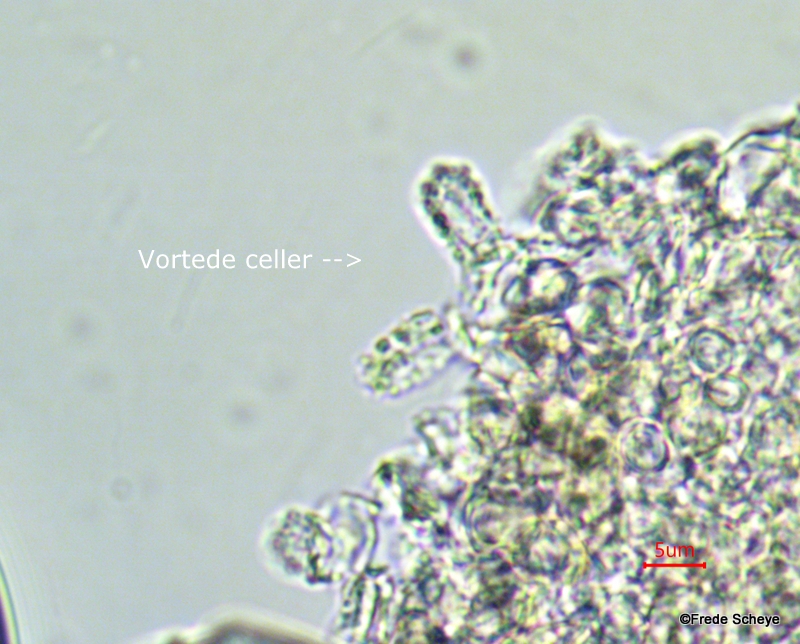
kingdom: Fungi
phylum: Ascomycota
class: Sordariomycetes
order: Hypocreales
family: Hypocreaceae
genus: Trichoderma
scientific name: Trichoderma pulvinatum
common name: snyltende kødkerne
